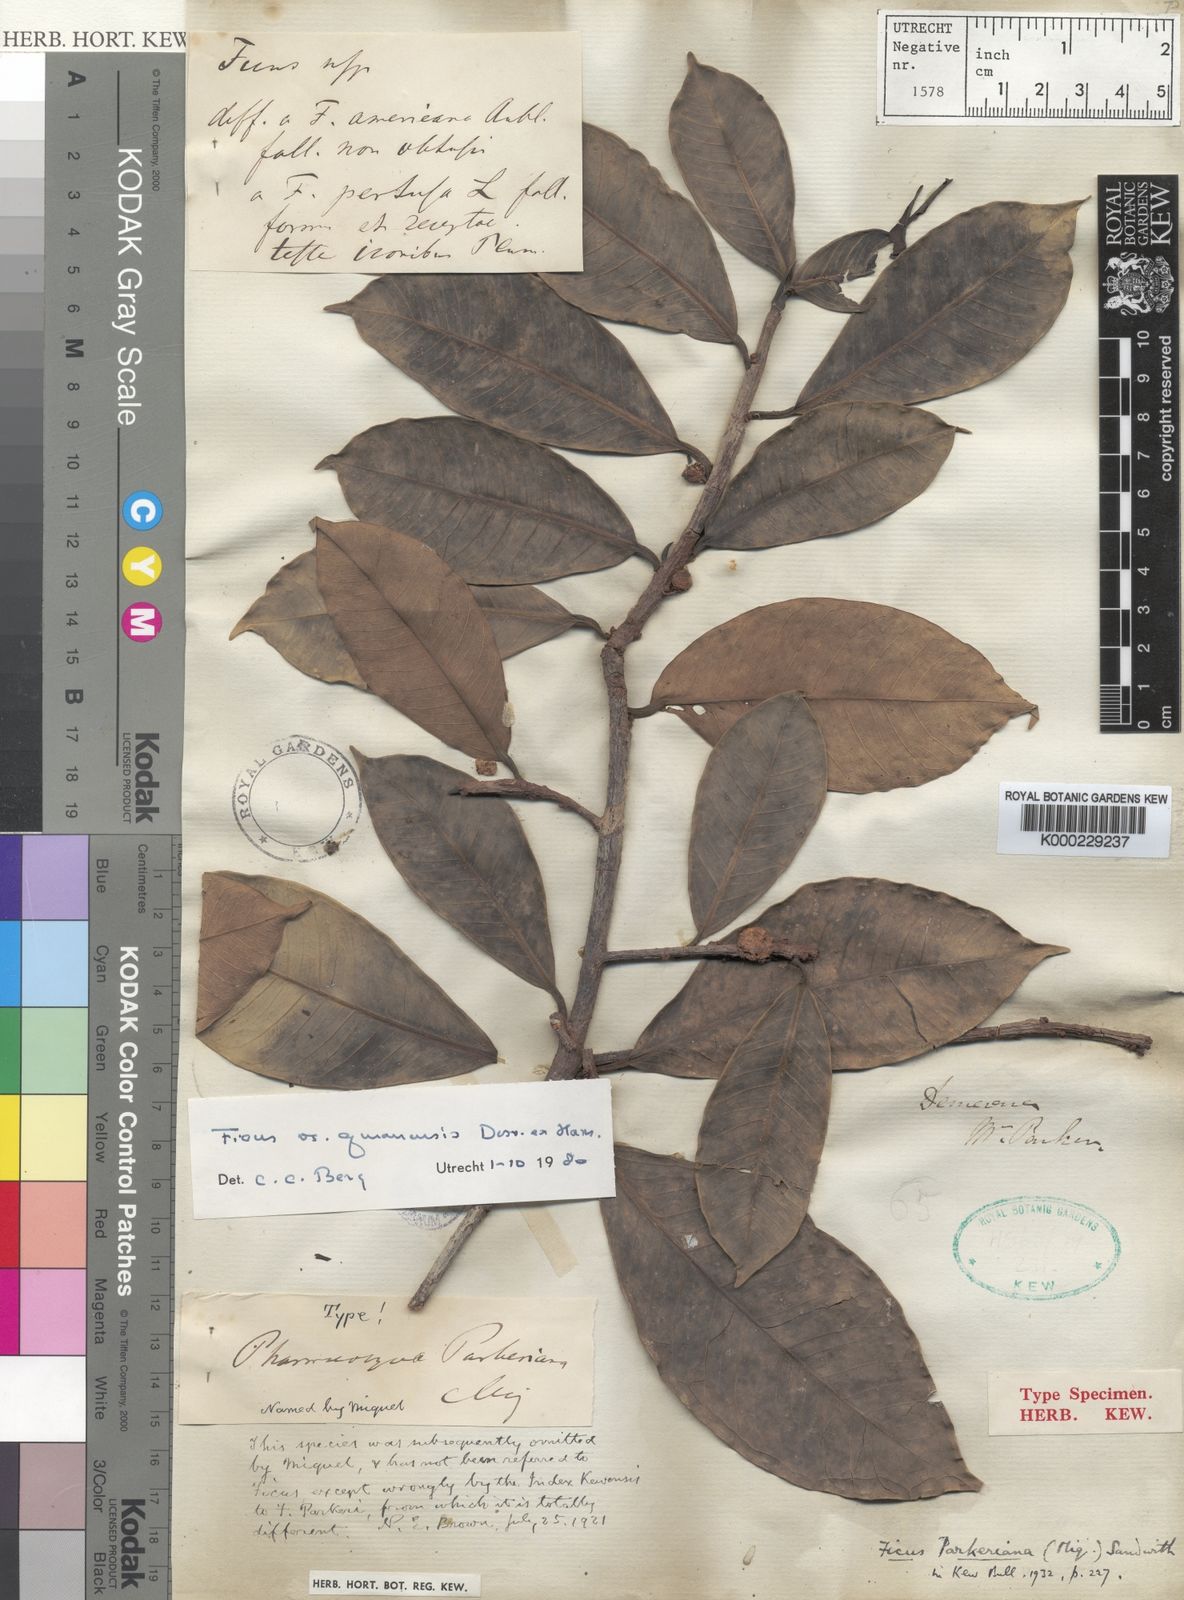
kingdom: Plantae
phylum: Tracheophyta
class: Magnoliopsida
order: Rosales
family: Moraceae
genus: Ficus
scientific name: Ficus americana
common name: Jamaican cherry fig
